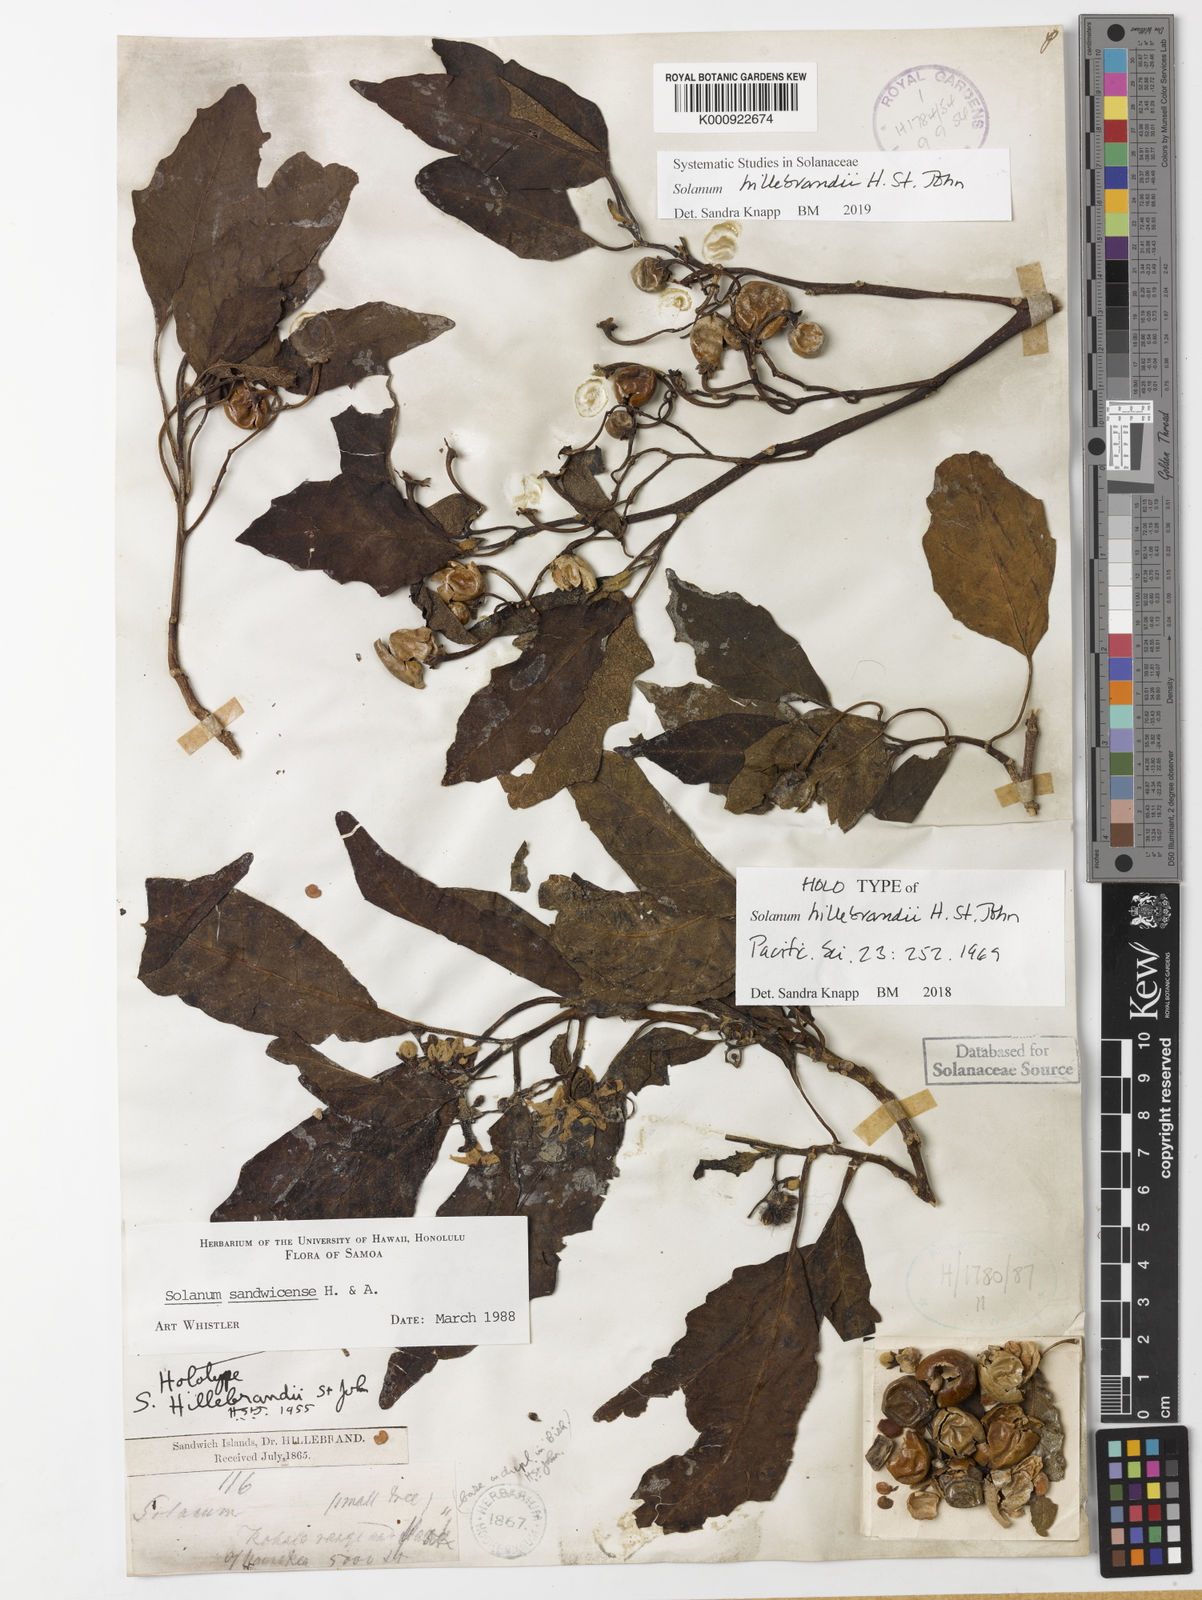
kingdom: Plantae
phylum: Tracheophyta
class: Magnoliopsida
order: Solanales
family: Solanaceae
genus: Solanum
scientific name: Solanum hillebrandii
